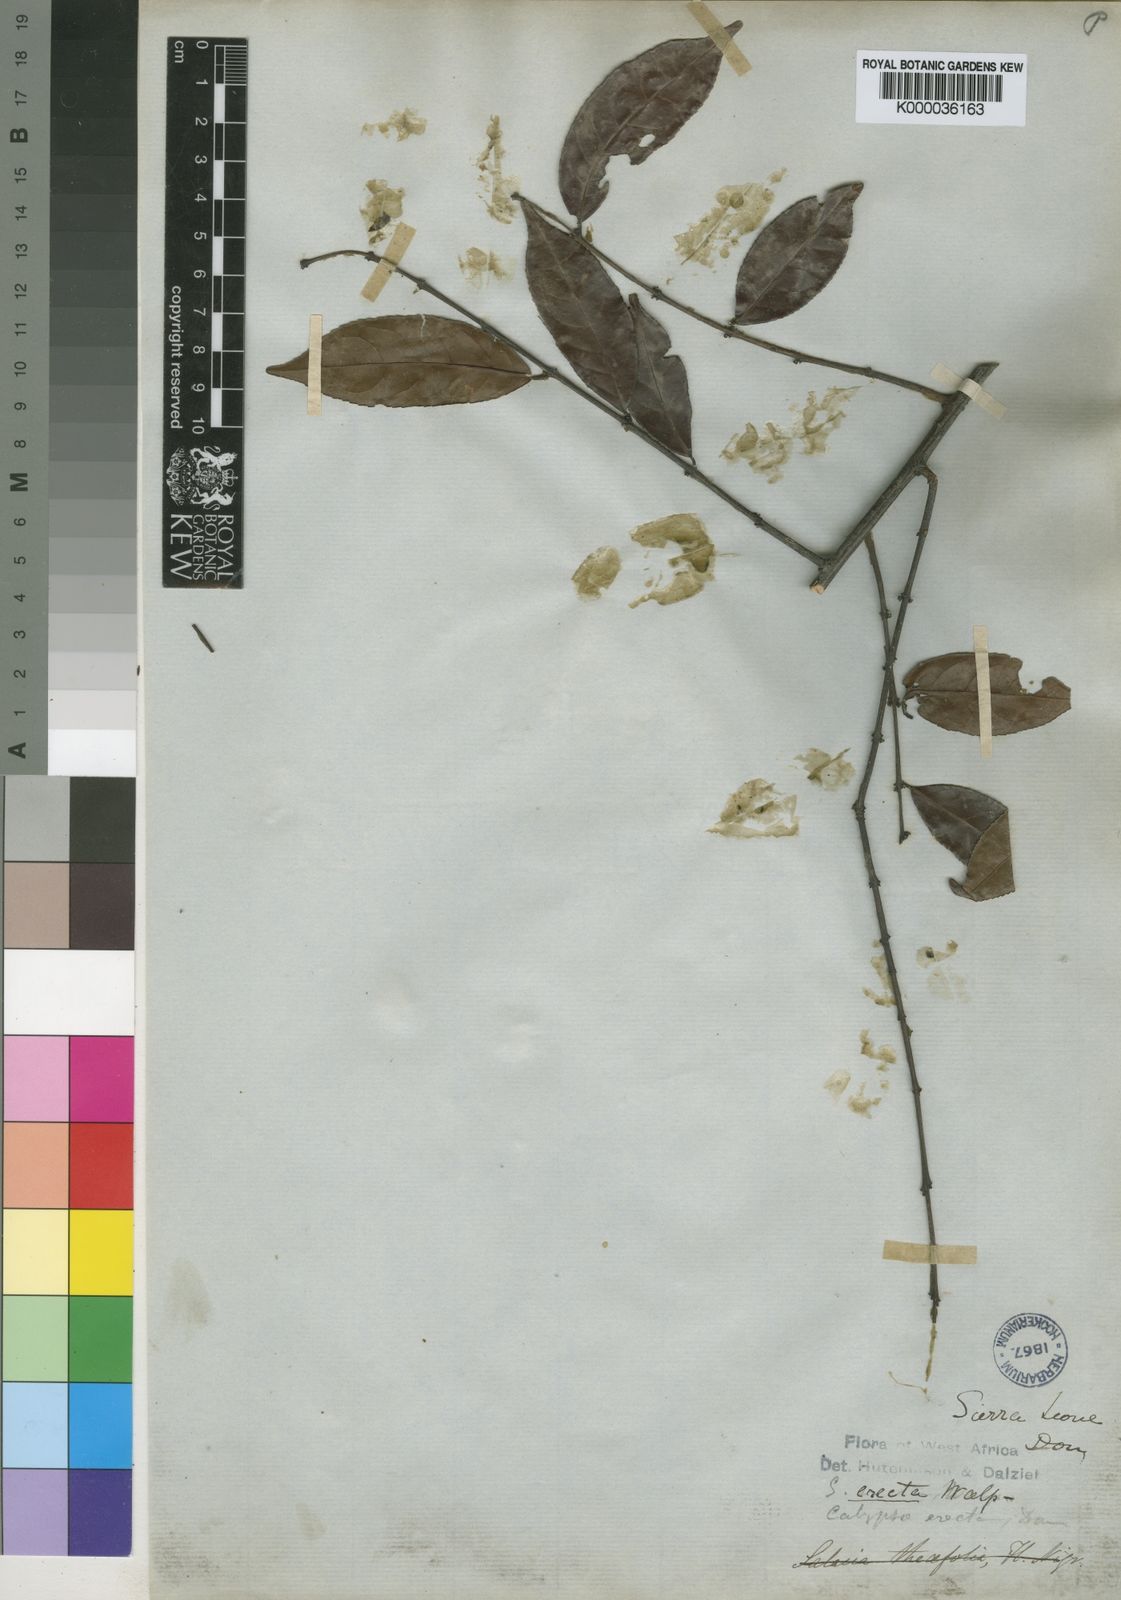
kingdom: Plantae
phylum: Tracheophyta
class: Magnoliopsida
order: Celastrales
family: Celastraceae
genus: Salacia
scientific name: Salacia erecta
